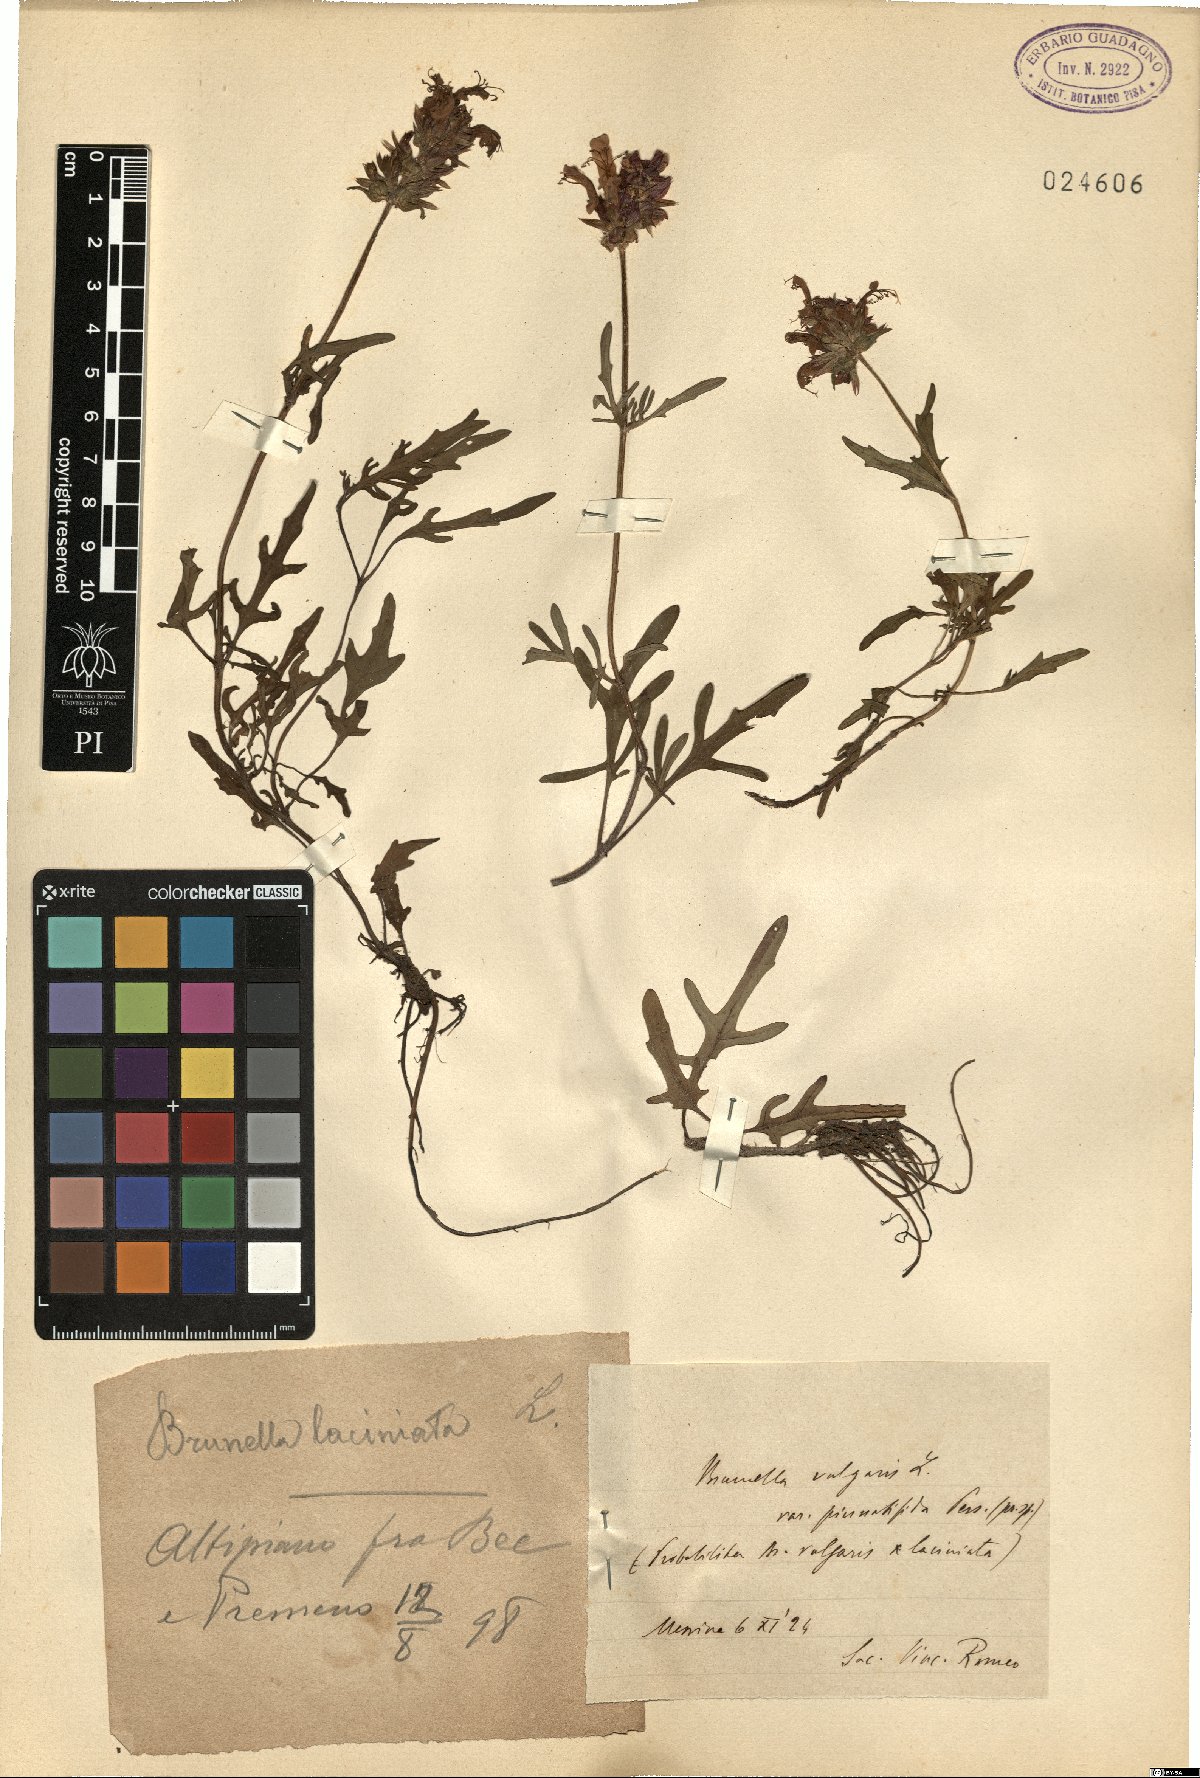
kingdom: Plantae
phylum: Tracheophyta
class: Magnoliopsida
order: Lamiales
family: Lamiaceae
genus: Prunella
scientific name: Prunella intermedia
